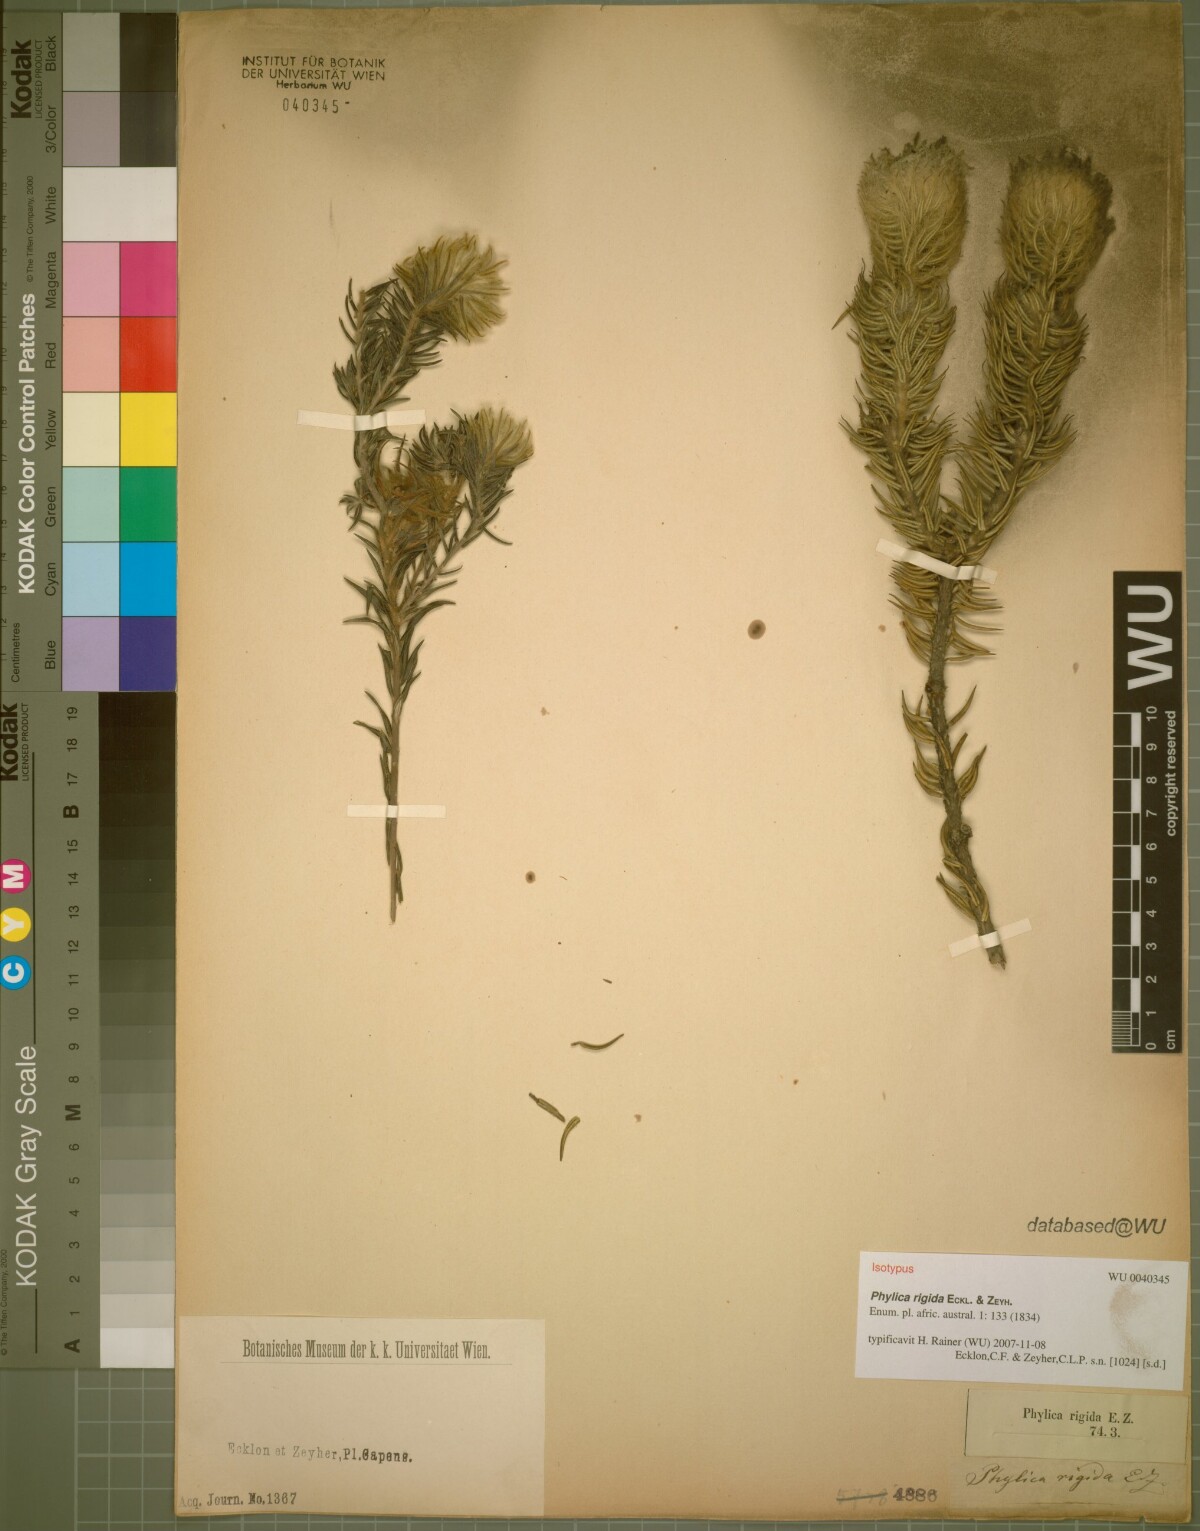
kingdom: Plantae
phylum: Tracheophyta
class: Magnoliopsida
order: Rosales
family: Rhamnaceae
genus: Phylica
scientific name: Phylica rigida
